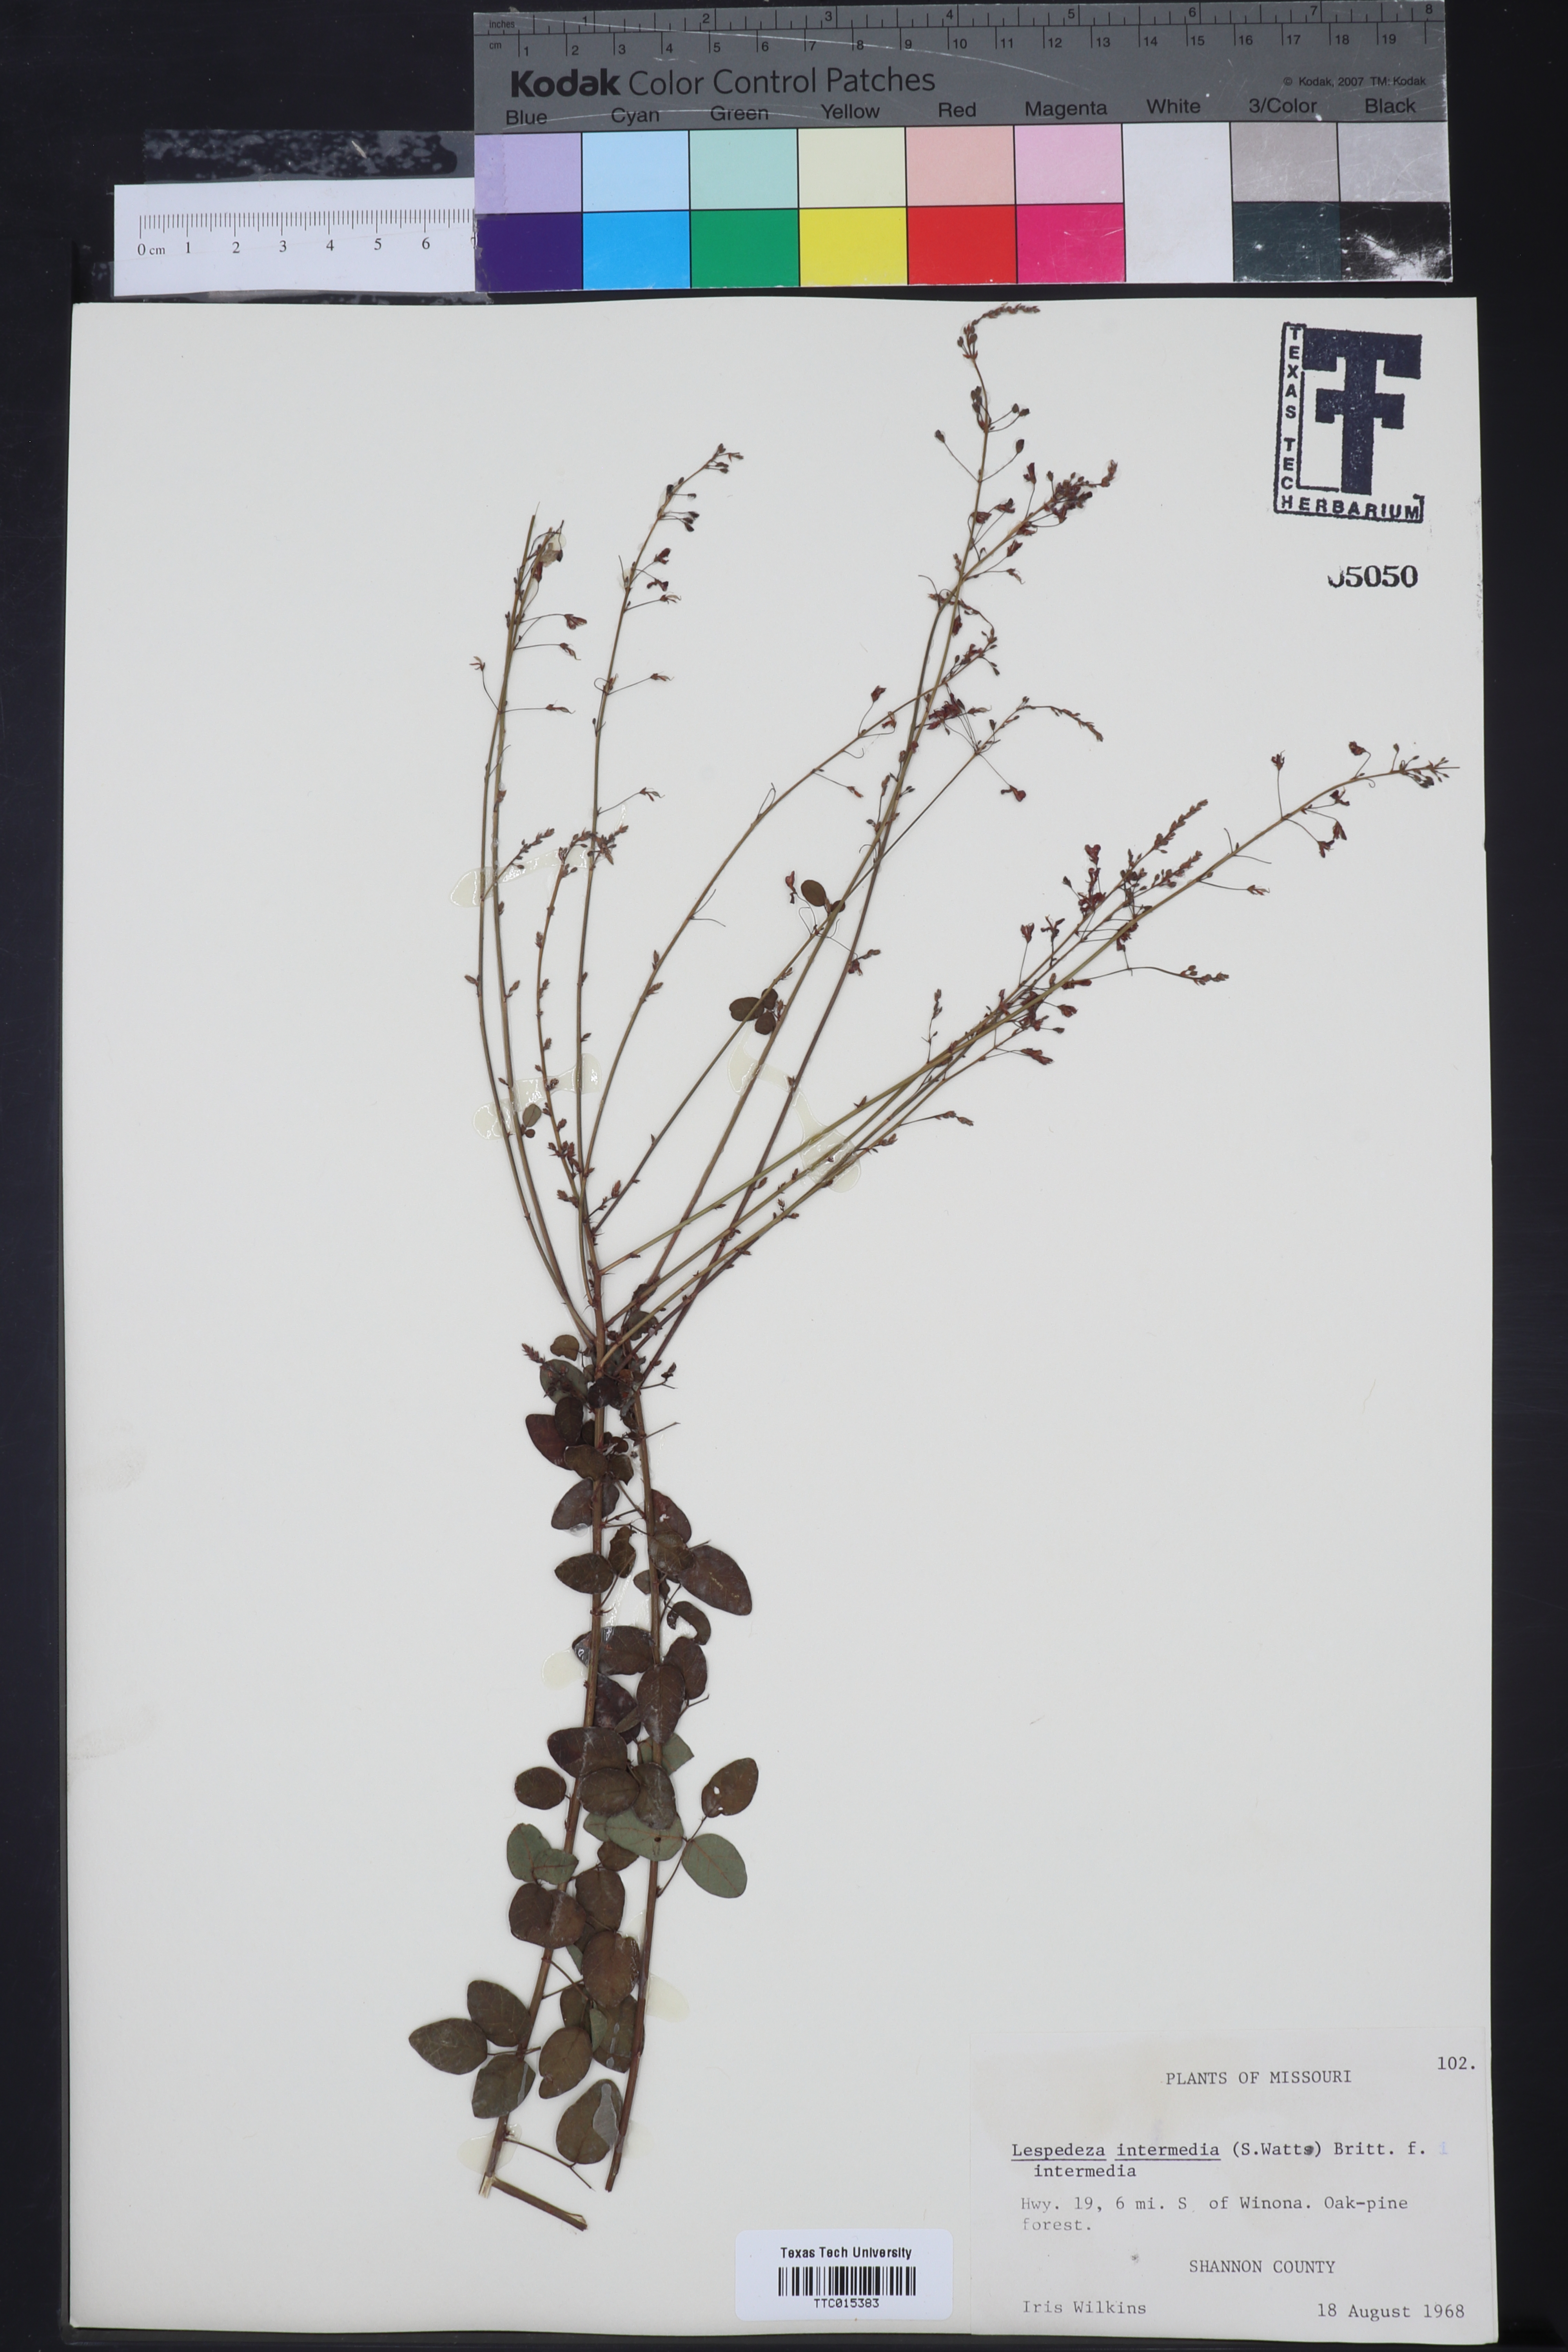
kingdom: Plantae
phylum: Tracheophyta
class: Magnoliopsida
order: Fabales
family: Fabaceae
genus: Lespedeza
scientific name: Lespedeza
